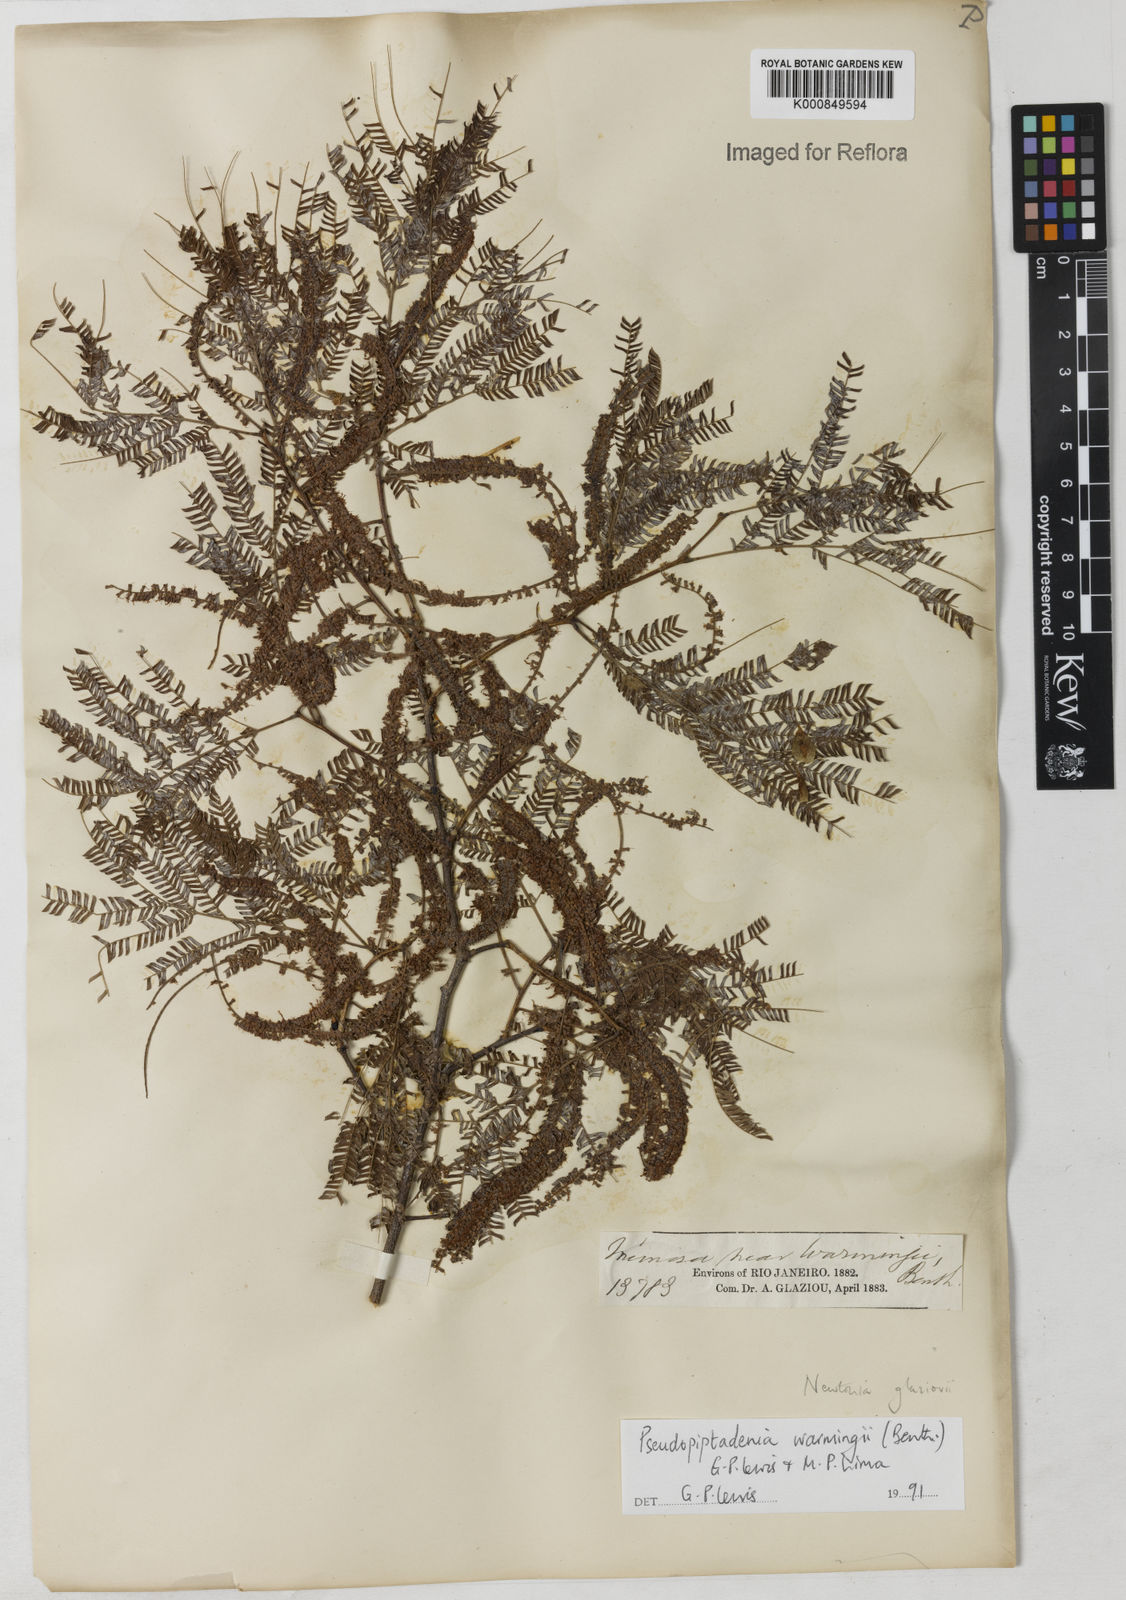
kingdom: Plantae
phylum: Tracheophyta
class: Magnoliopsida
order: Fabales
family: Fabaceae
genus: Pseudopiptadenia
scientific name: Pseudopiptadenia warmingii
